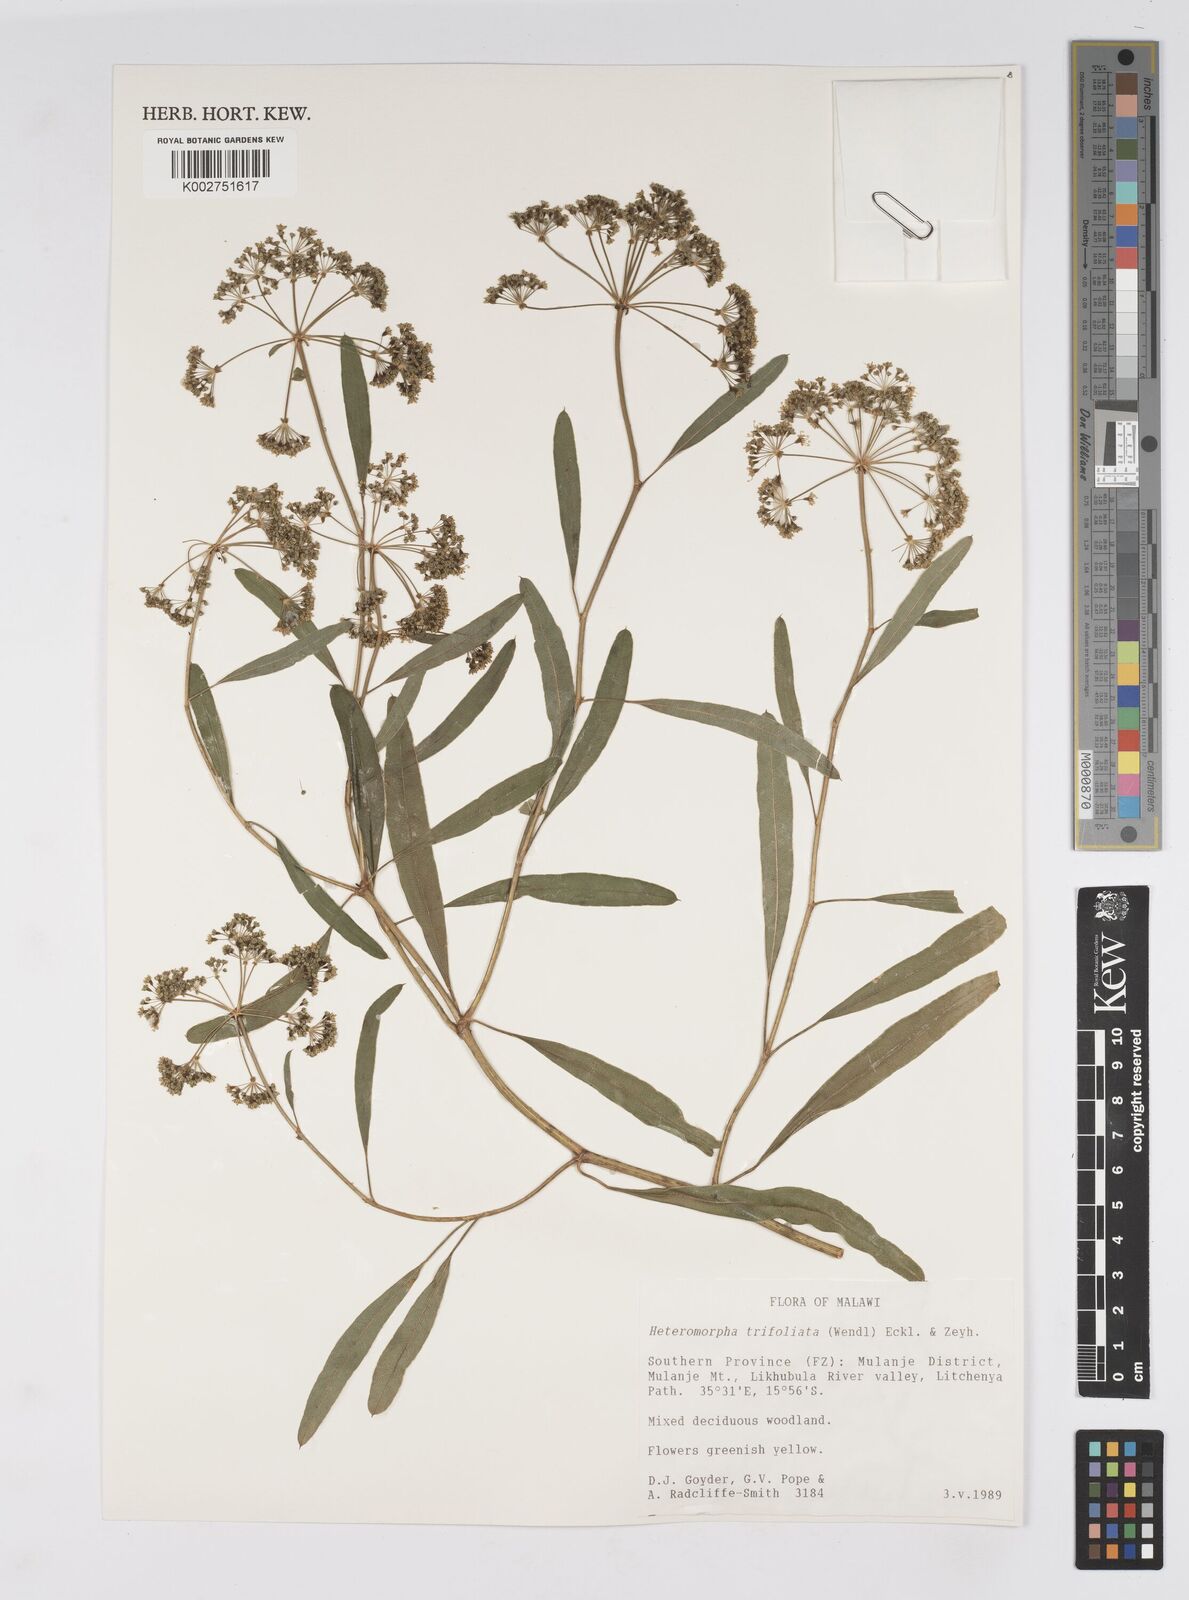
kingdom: Plantae
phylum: Tracheophyta
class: Magnoliopsida
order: Apiales
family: Apiaceae
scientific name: Apiaceae
